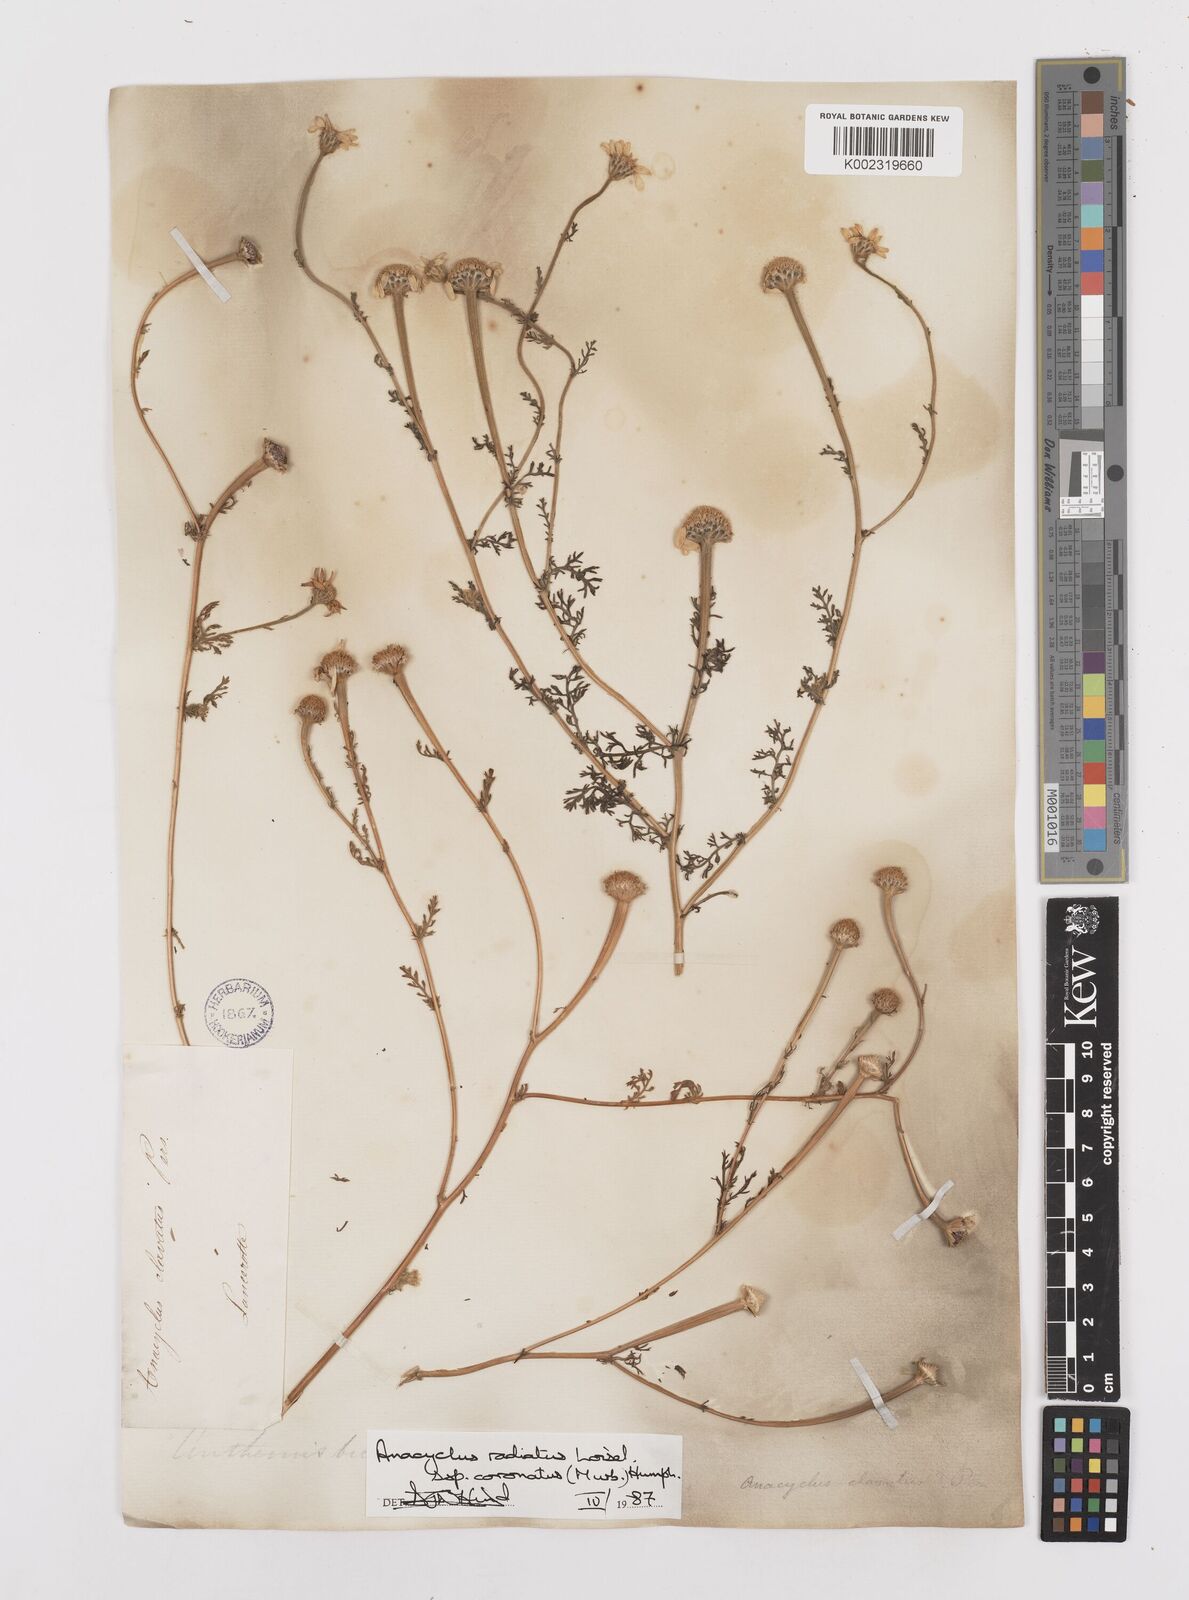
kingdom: Plantae
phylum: Tracheophyta
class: Magnoliopsida
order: Asterales
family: Asteraceae
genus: Anacyclus
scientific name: Anacyclus radiatus
